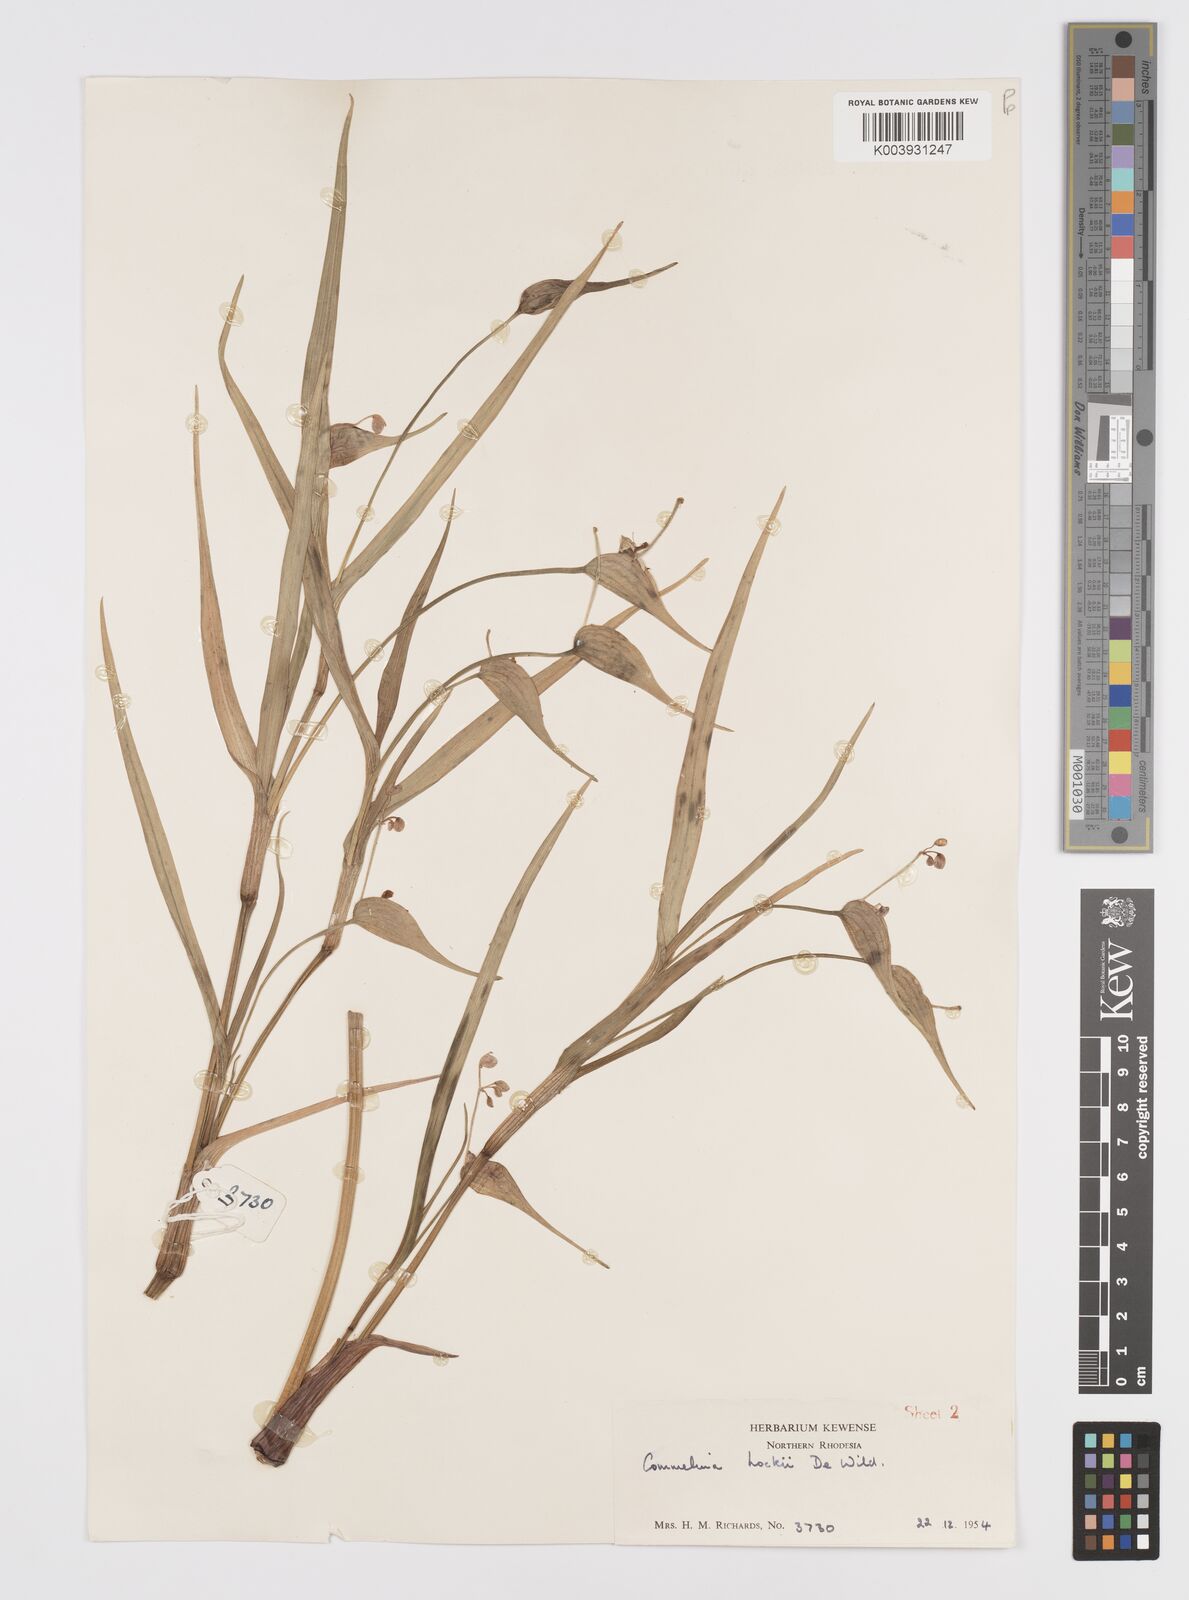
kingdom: Plantae
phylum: Tracheophyta
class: Liliopsida
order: Commelinales
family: Commelinaceae
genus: Commelina
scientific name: Commelina hockii
